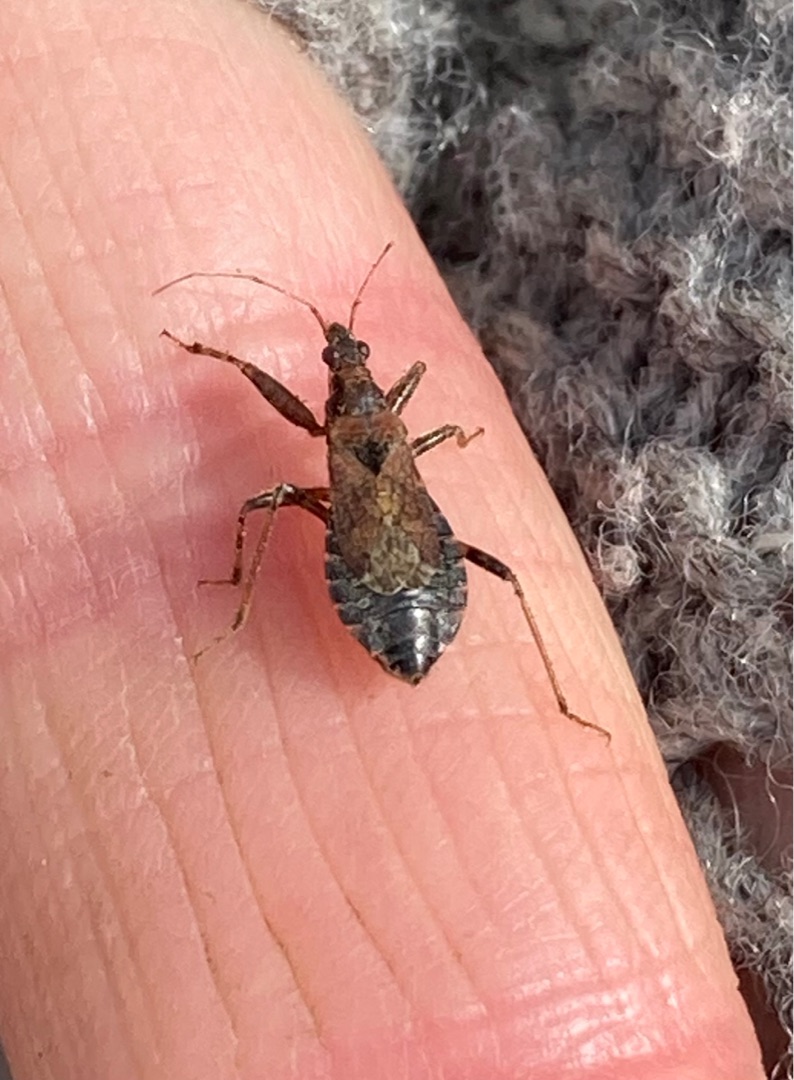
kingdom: Animalia
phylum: Arthropoda
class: Insecta
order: Hemiptera
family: Nabidae
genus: Himacerus
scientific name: Himacerus mirmicoides
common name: Myrenymfetæge
